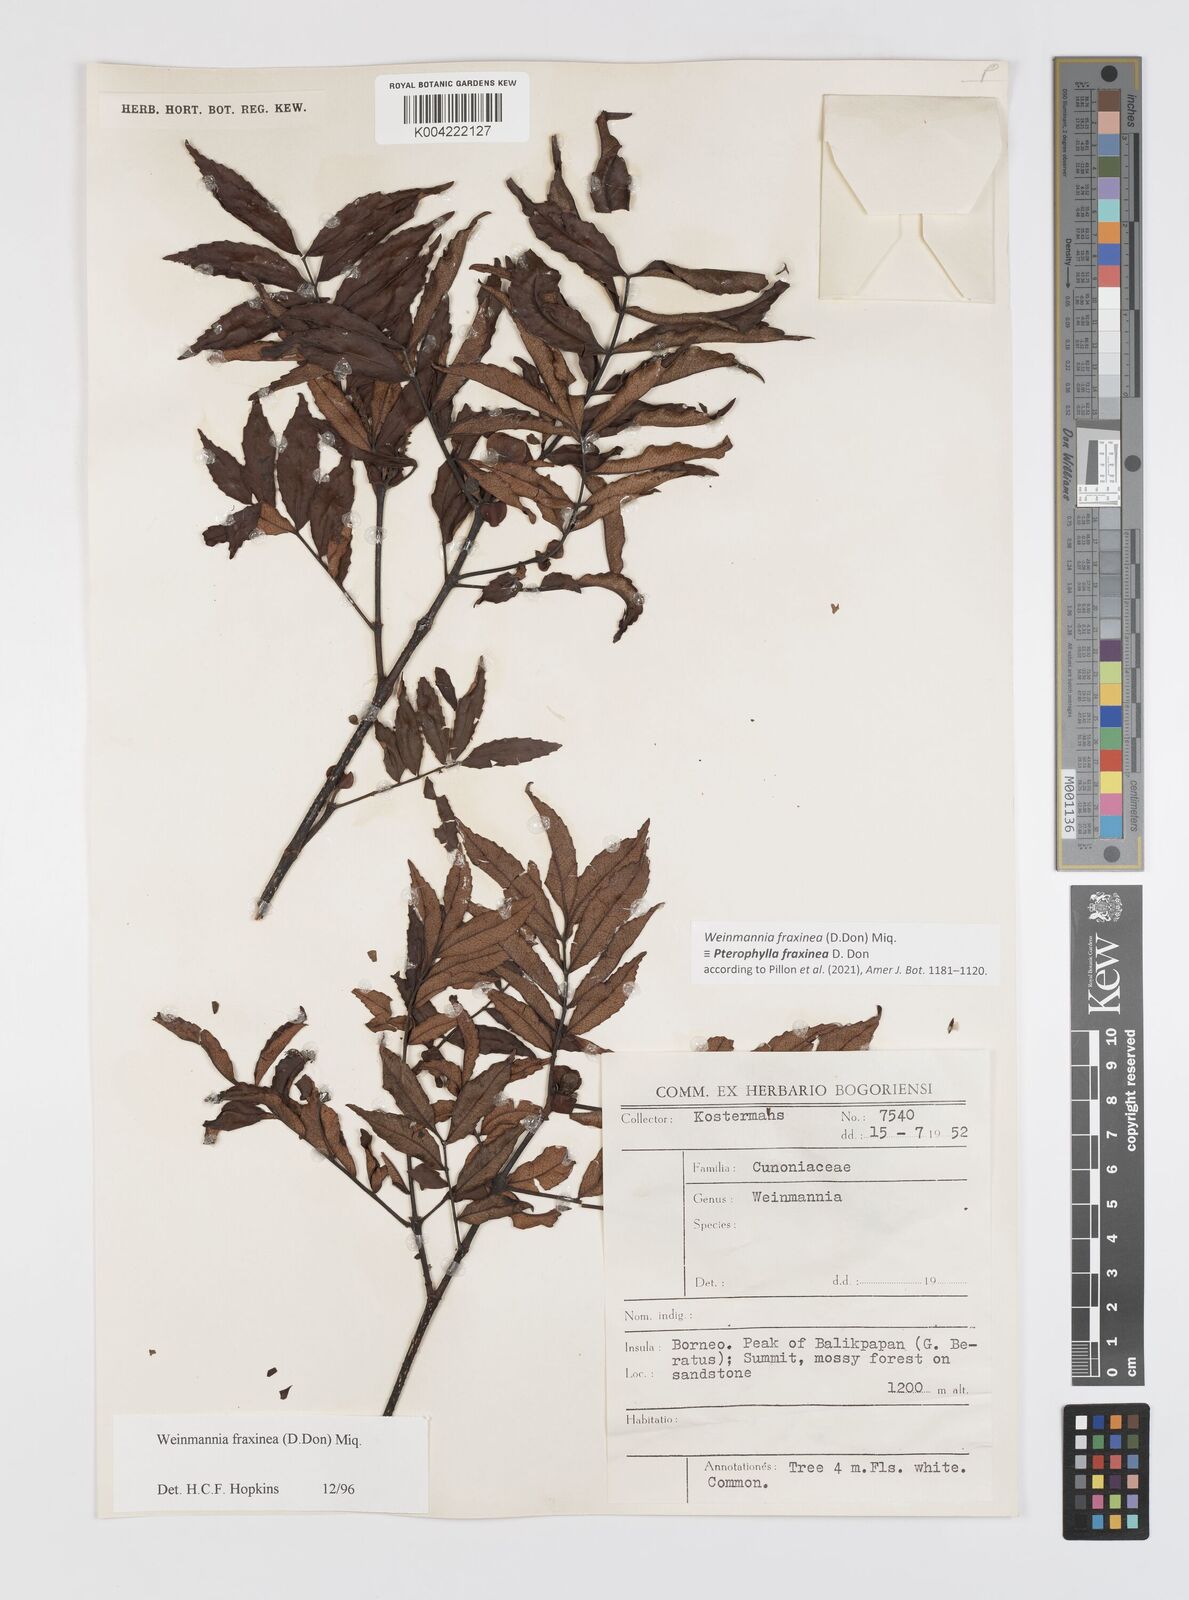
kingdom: Plantae
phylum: Tracheophyta
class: Magnoliopsida
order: Oxalidales
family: Cunoniaceae
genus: Pterophylla
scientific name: Pterophylla fraxinea
